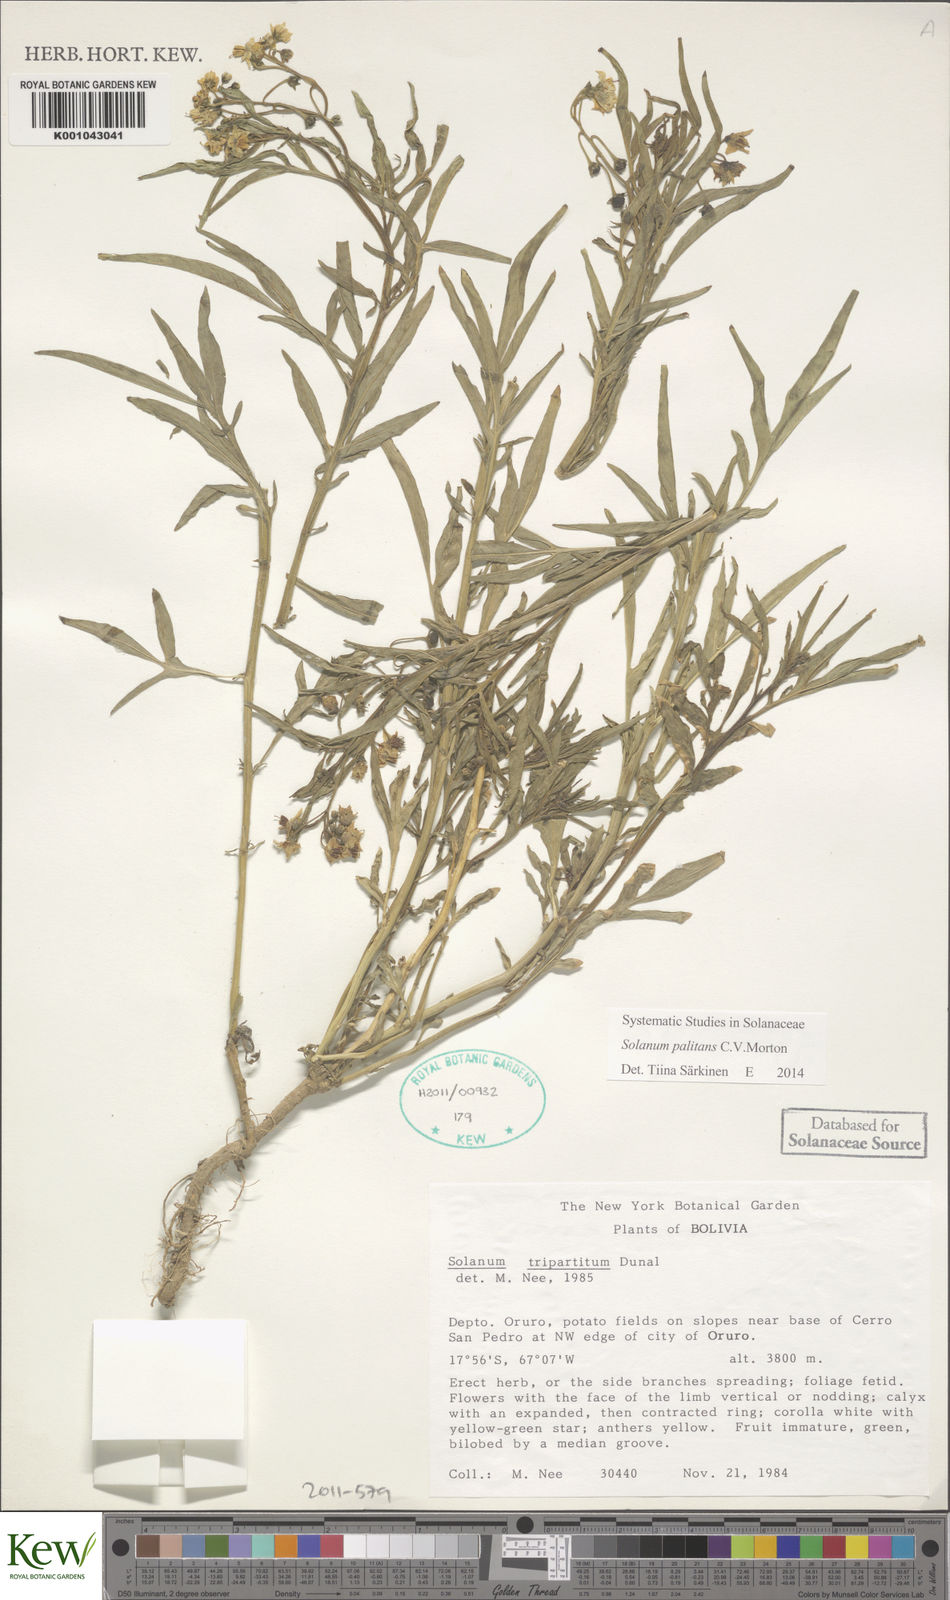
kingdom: Plantae
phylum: Tracheophyta
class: Magnoliopsida
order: Solanales
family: Solanaceae
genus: Solanum
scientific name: Solanum tripartitum
